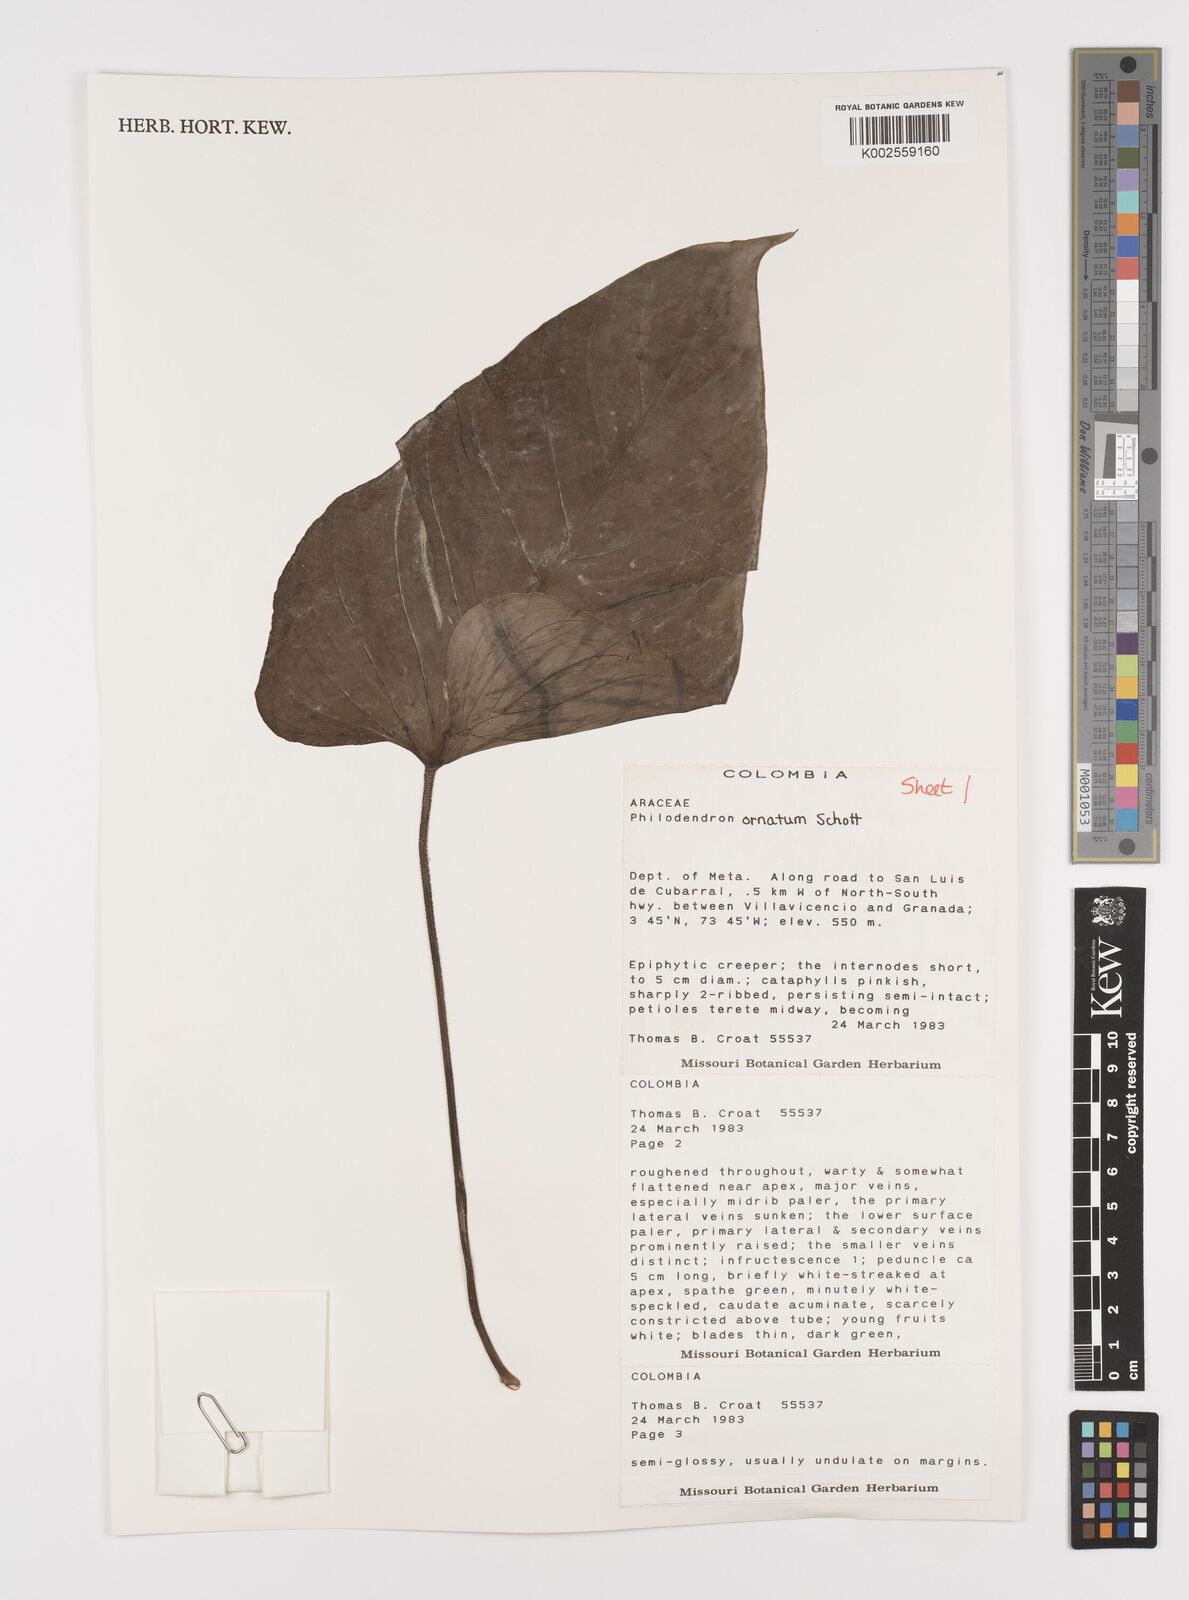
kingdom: Plantae
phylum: Tracheophyta
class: Liliopsida
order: Alismatales
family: Araceae
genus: Philodendron
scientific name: Philodendron ornatum
